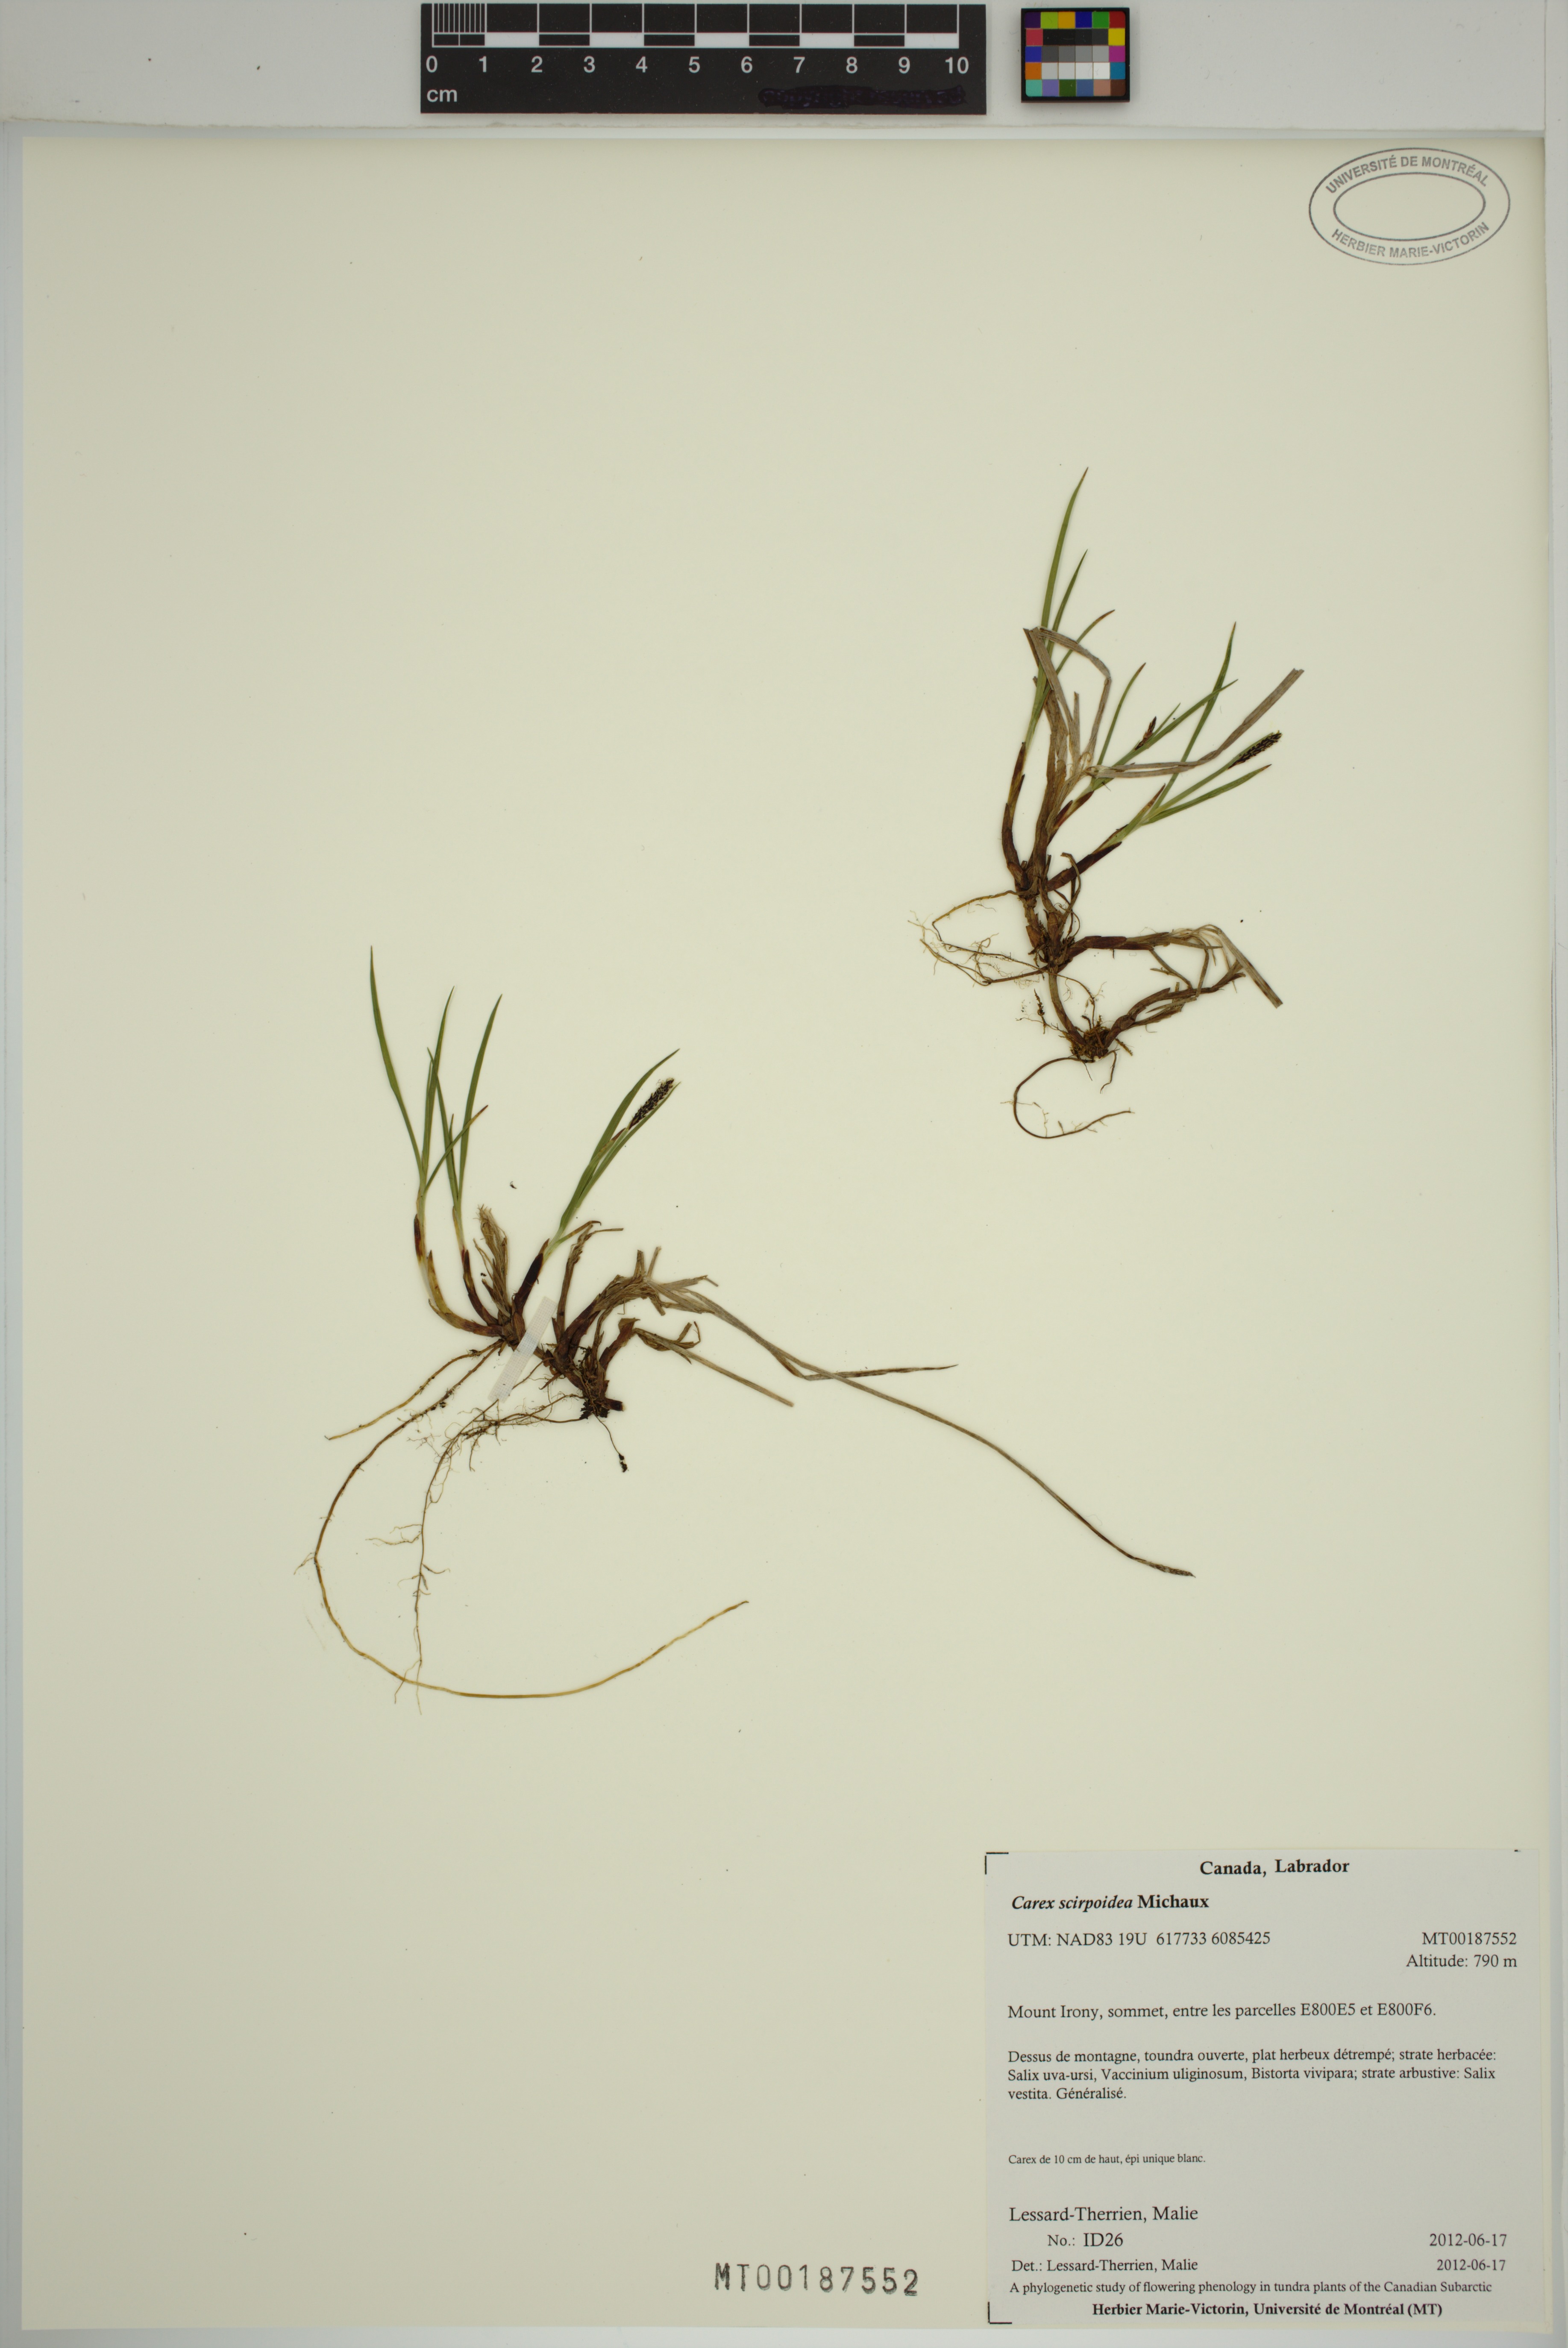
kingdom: Plantae
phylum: Tracheophyta
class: Liliopsida
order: Poales
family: Cyperaceae
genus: Carex
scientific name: Carex scirpoidea
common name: Canada single-spike sedge
